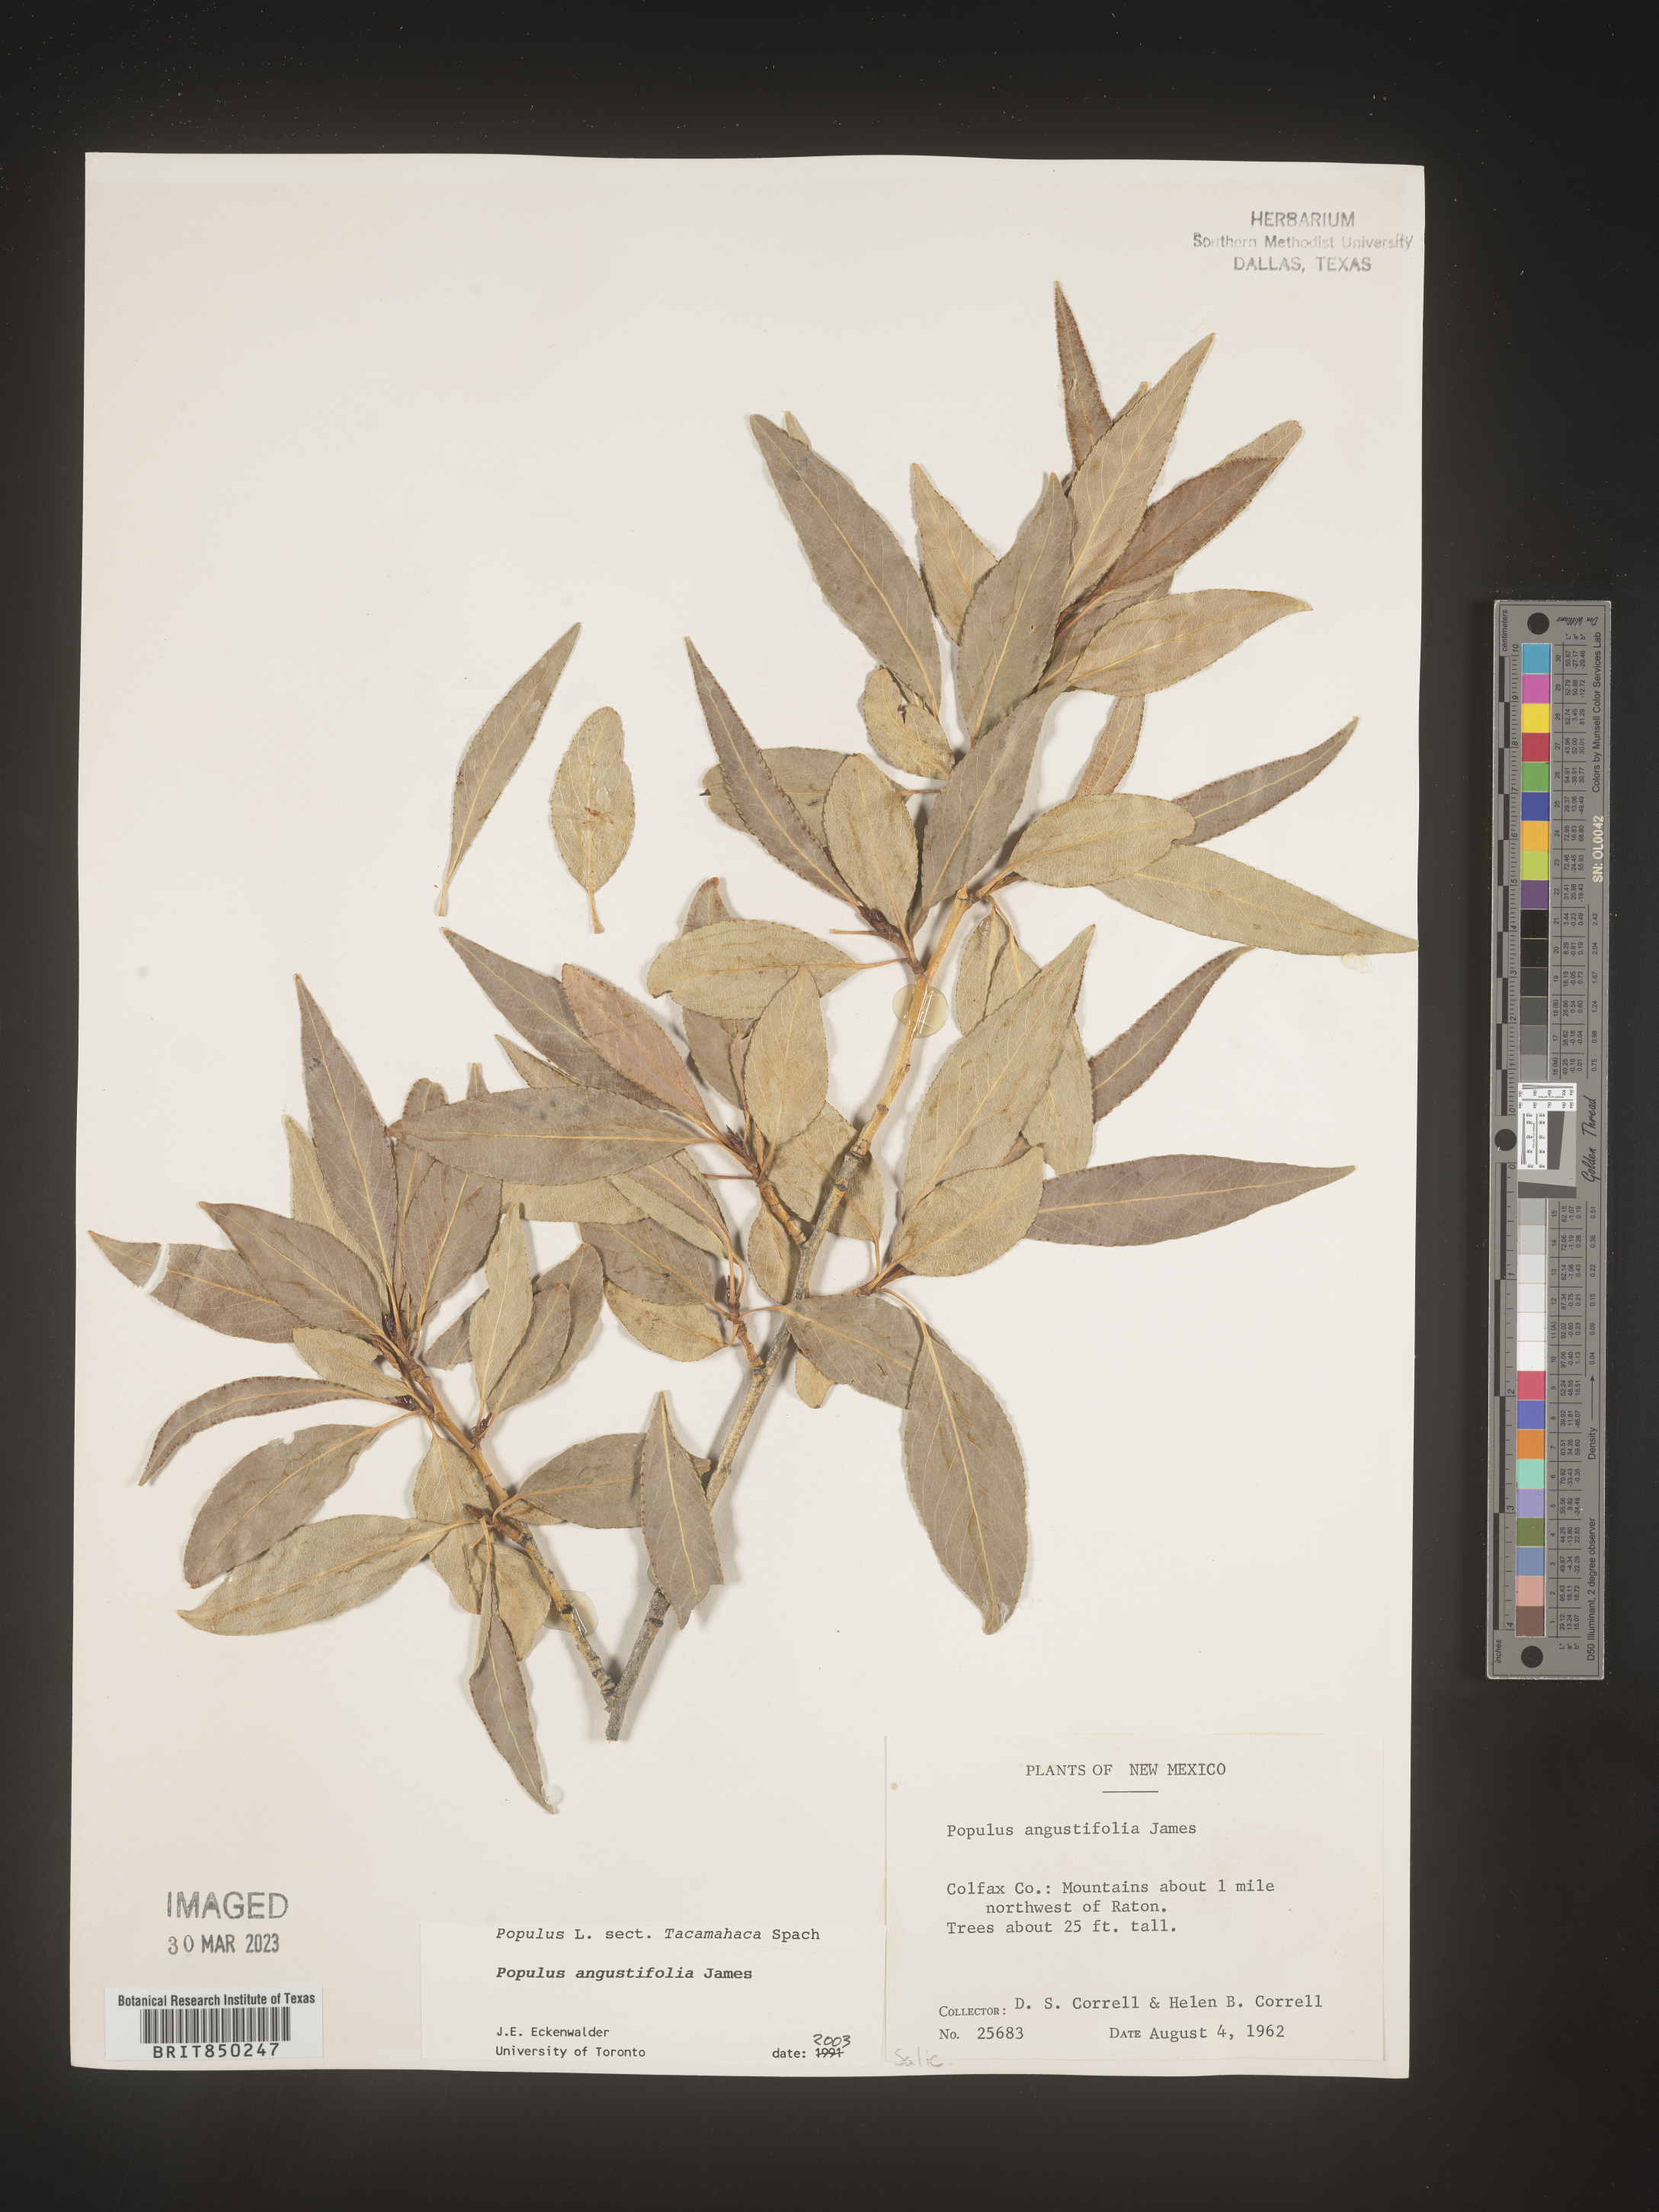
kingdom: Plantae
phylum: Tracheophyta
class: Magnoliopsida
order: Malpighiales
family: Salicaceae
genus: Populus
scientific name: Populus angustifolia
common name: Willow cottonwood
